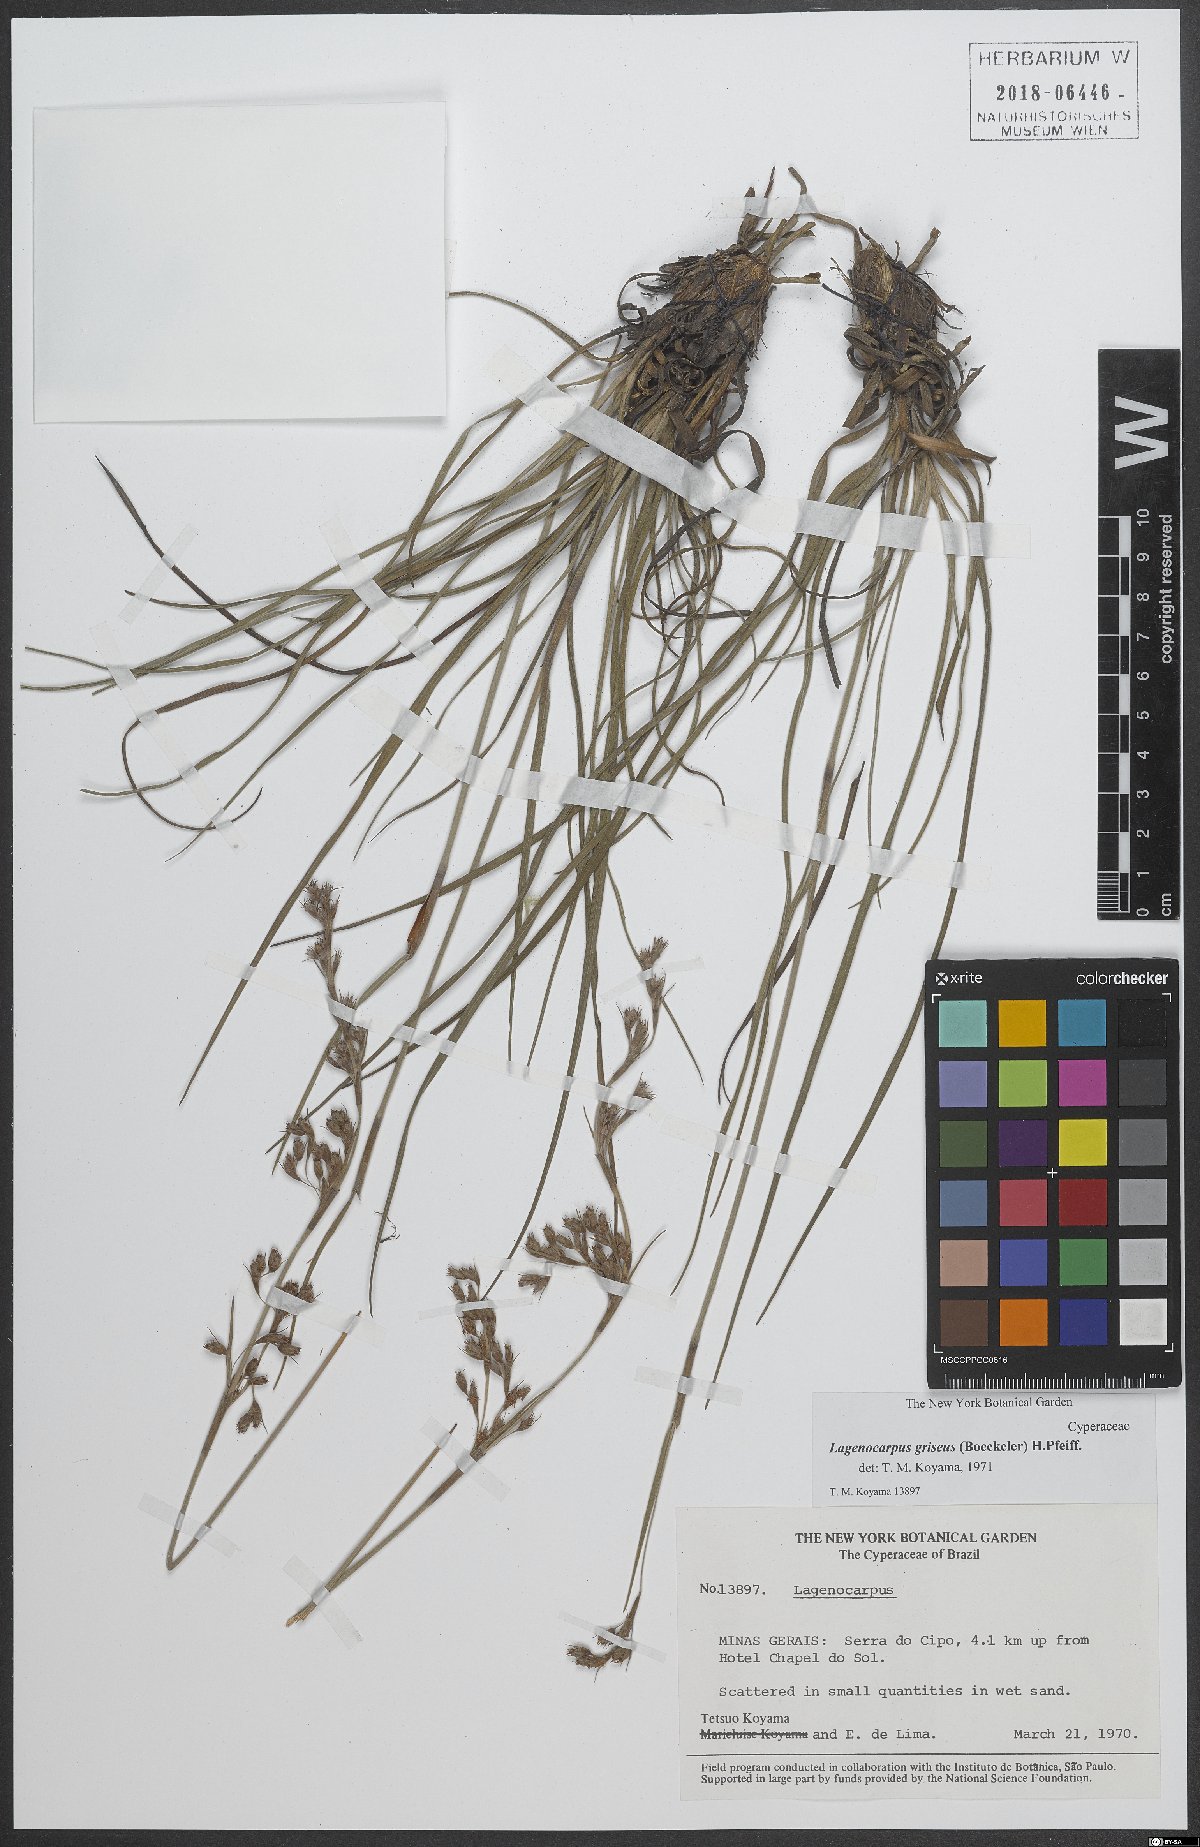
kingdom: Plantae
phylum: Tracheophyta
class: Liliopsida
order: Poales
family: Cyperaceae
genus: Lagenocarpus
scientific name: Lagenocarpus griseus
